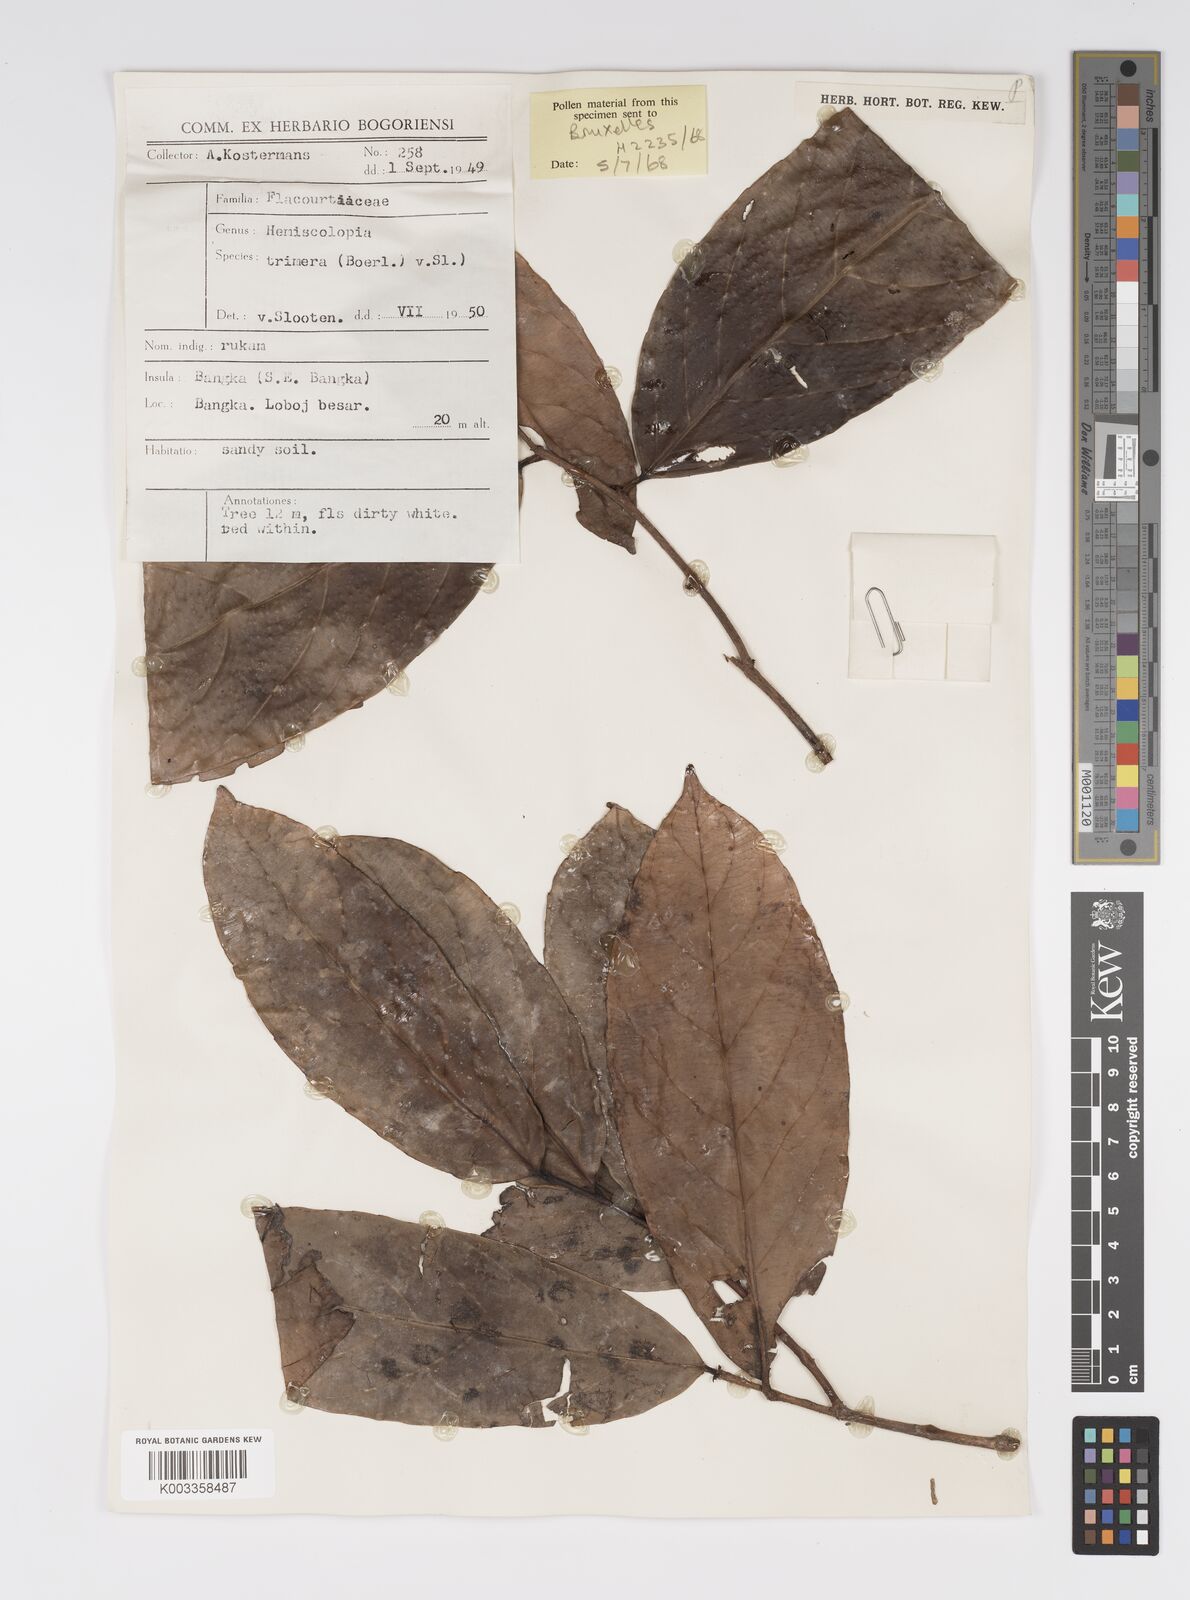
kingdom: Plantae
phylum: Tracheophyta
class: Magnoliopsida
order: Malpighiales
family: Salicaceae
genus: Hemiscolopia
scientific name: Hemiscolopia trimera
